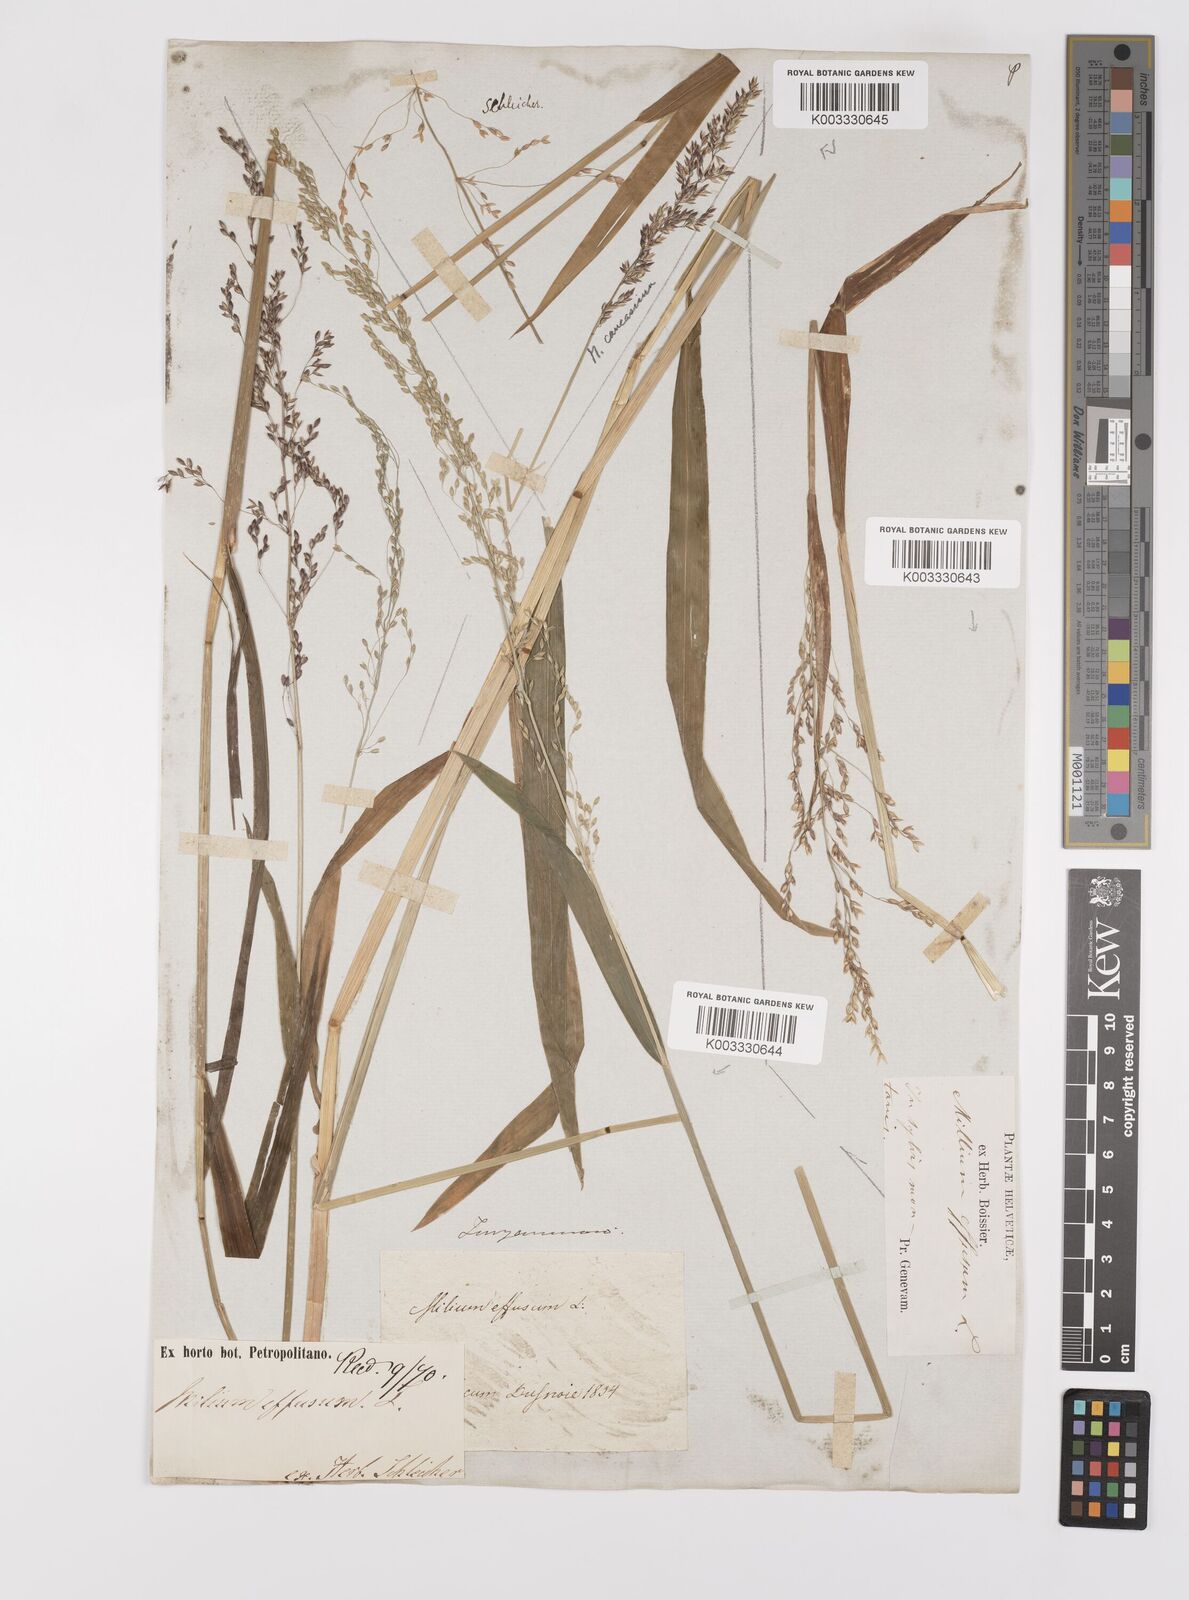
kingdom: Plantae
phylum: Tracheophyta
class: Liliopsida
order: Poales
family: Poaceae
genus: Milium
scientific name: Milium effusum
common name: Wood millet
